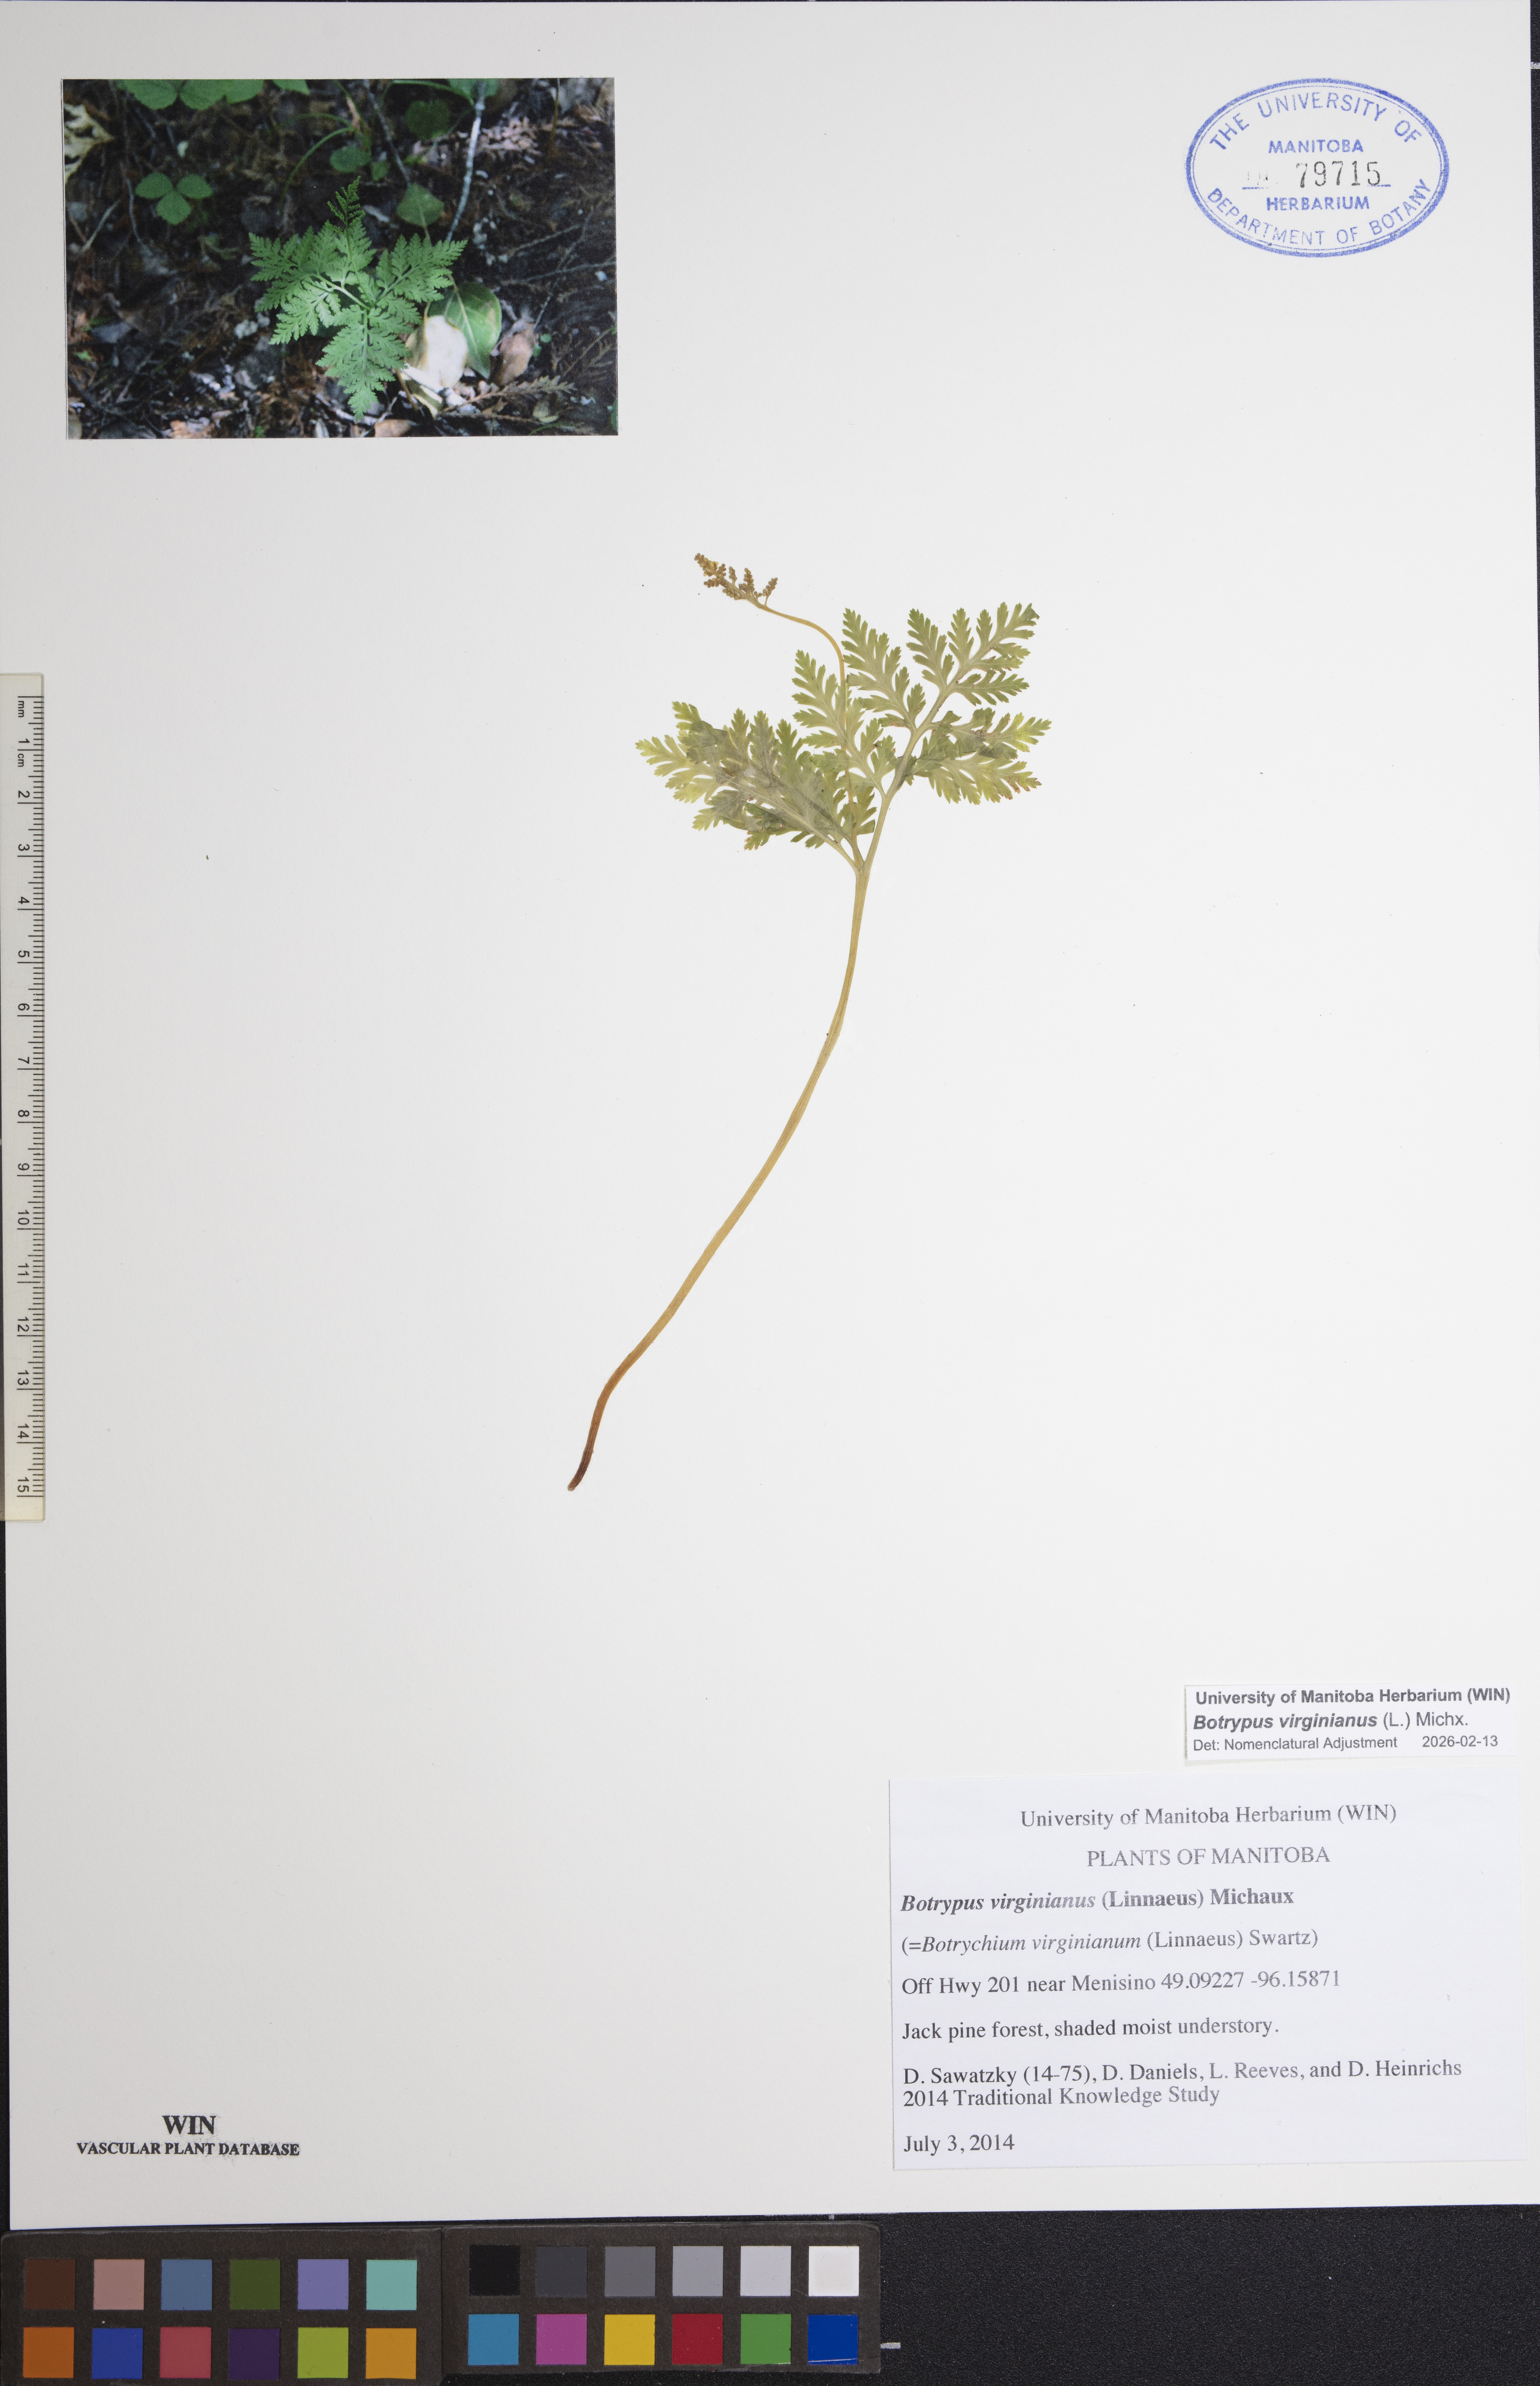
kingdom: Plantae
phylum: Tracheophyta
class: Polypodiopsida
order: Ophioglossales
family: Ophioglossaceae
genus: Botrypus
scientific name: Botrypus virginianus
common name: Common grapefern
